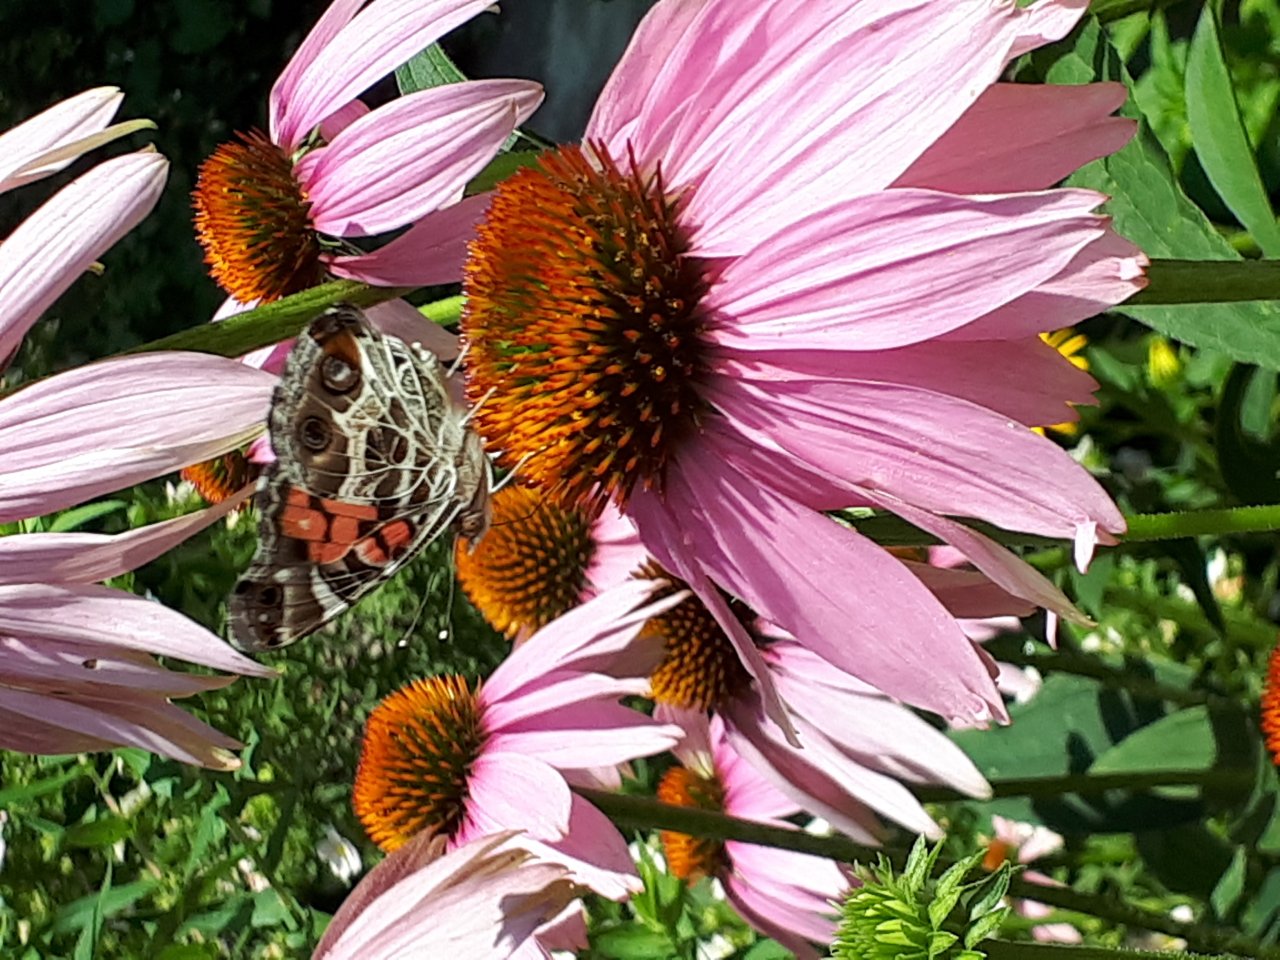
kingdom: Animalia
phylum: Arthropoda
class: Insecta
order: Lepidoptera
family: Nymphalidae
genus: Vanessa
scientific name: Vanessa virginiensis
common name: American Lady
